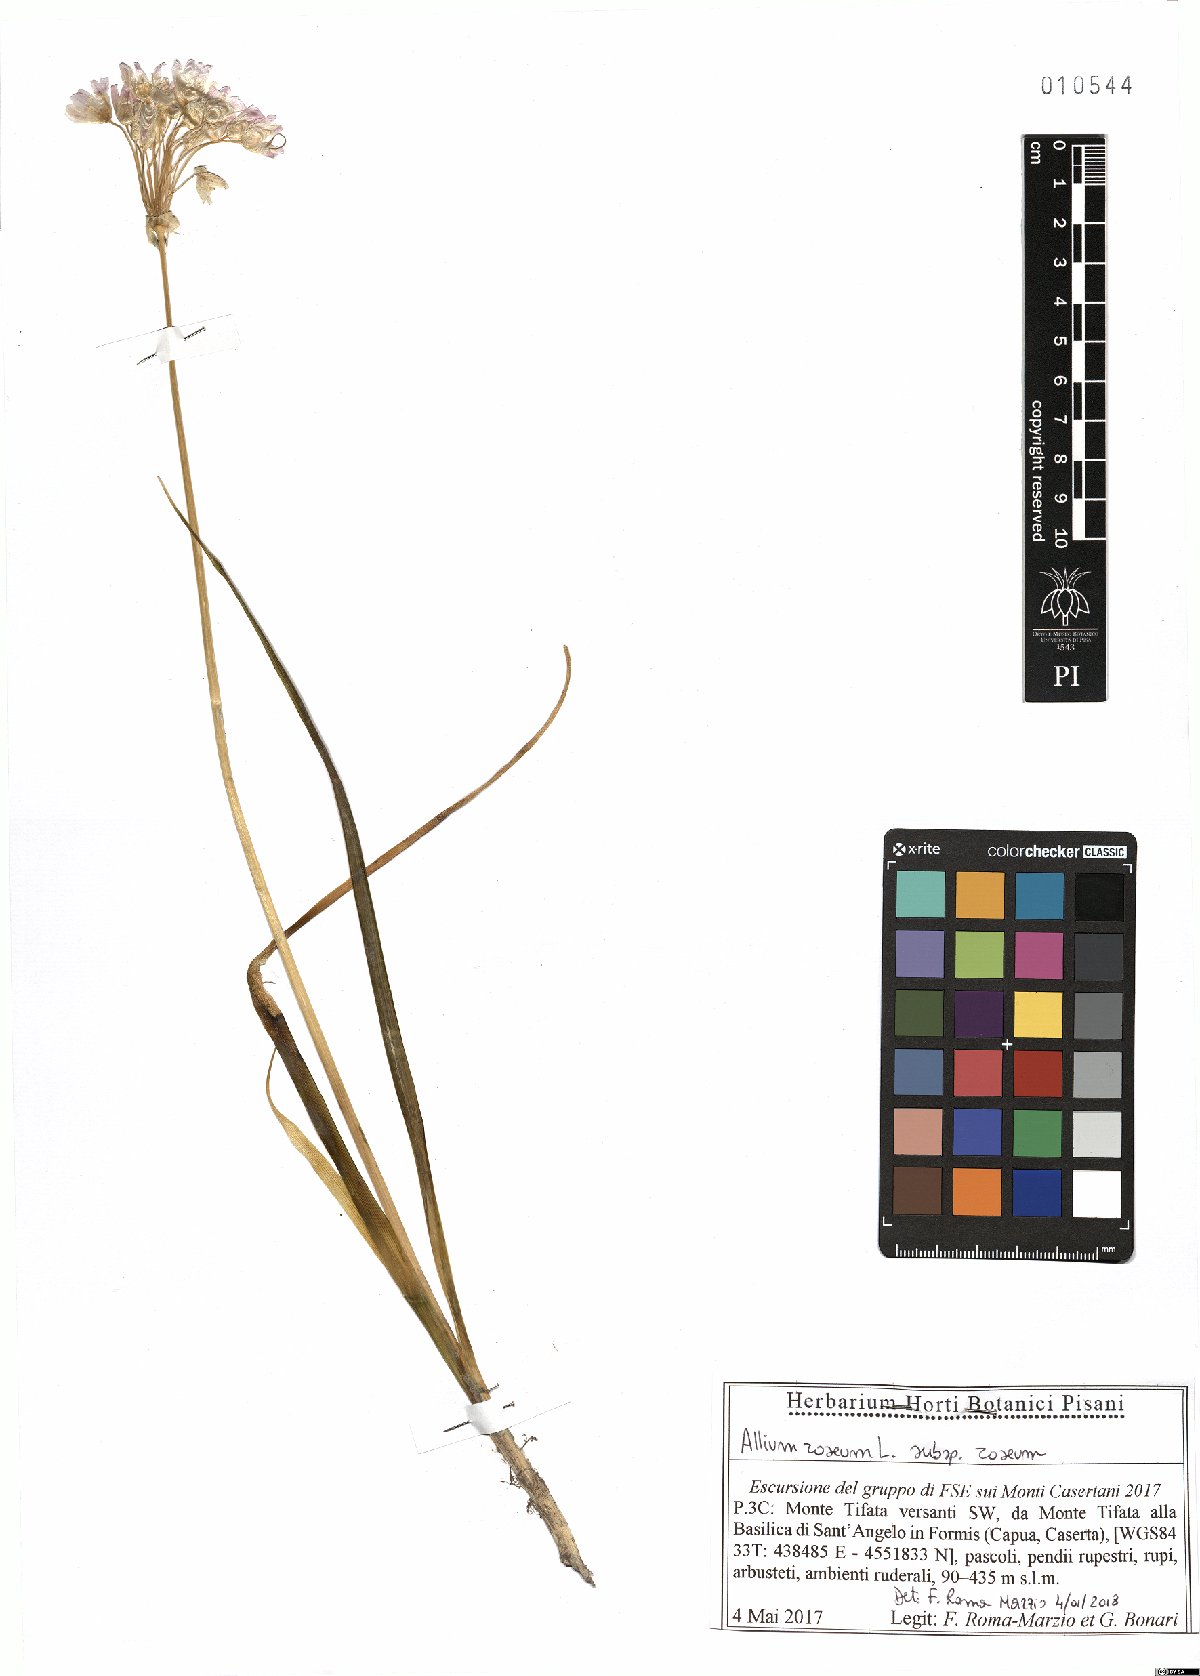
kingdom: Plantae
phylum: Tracheophyta
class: Liliopsida
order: Asparagales
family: Amaryllidaceae
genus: Allium
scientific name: Allium roseum
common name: Rosy garlic
